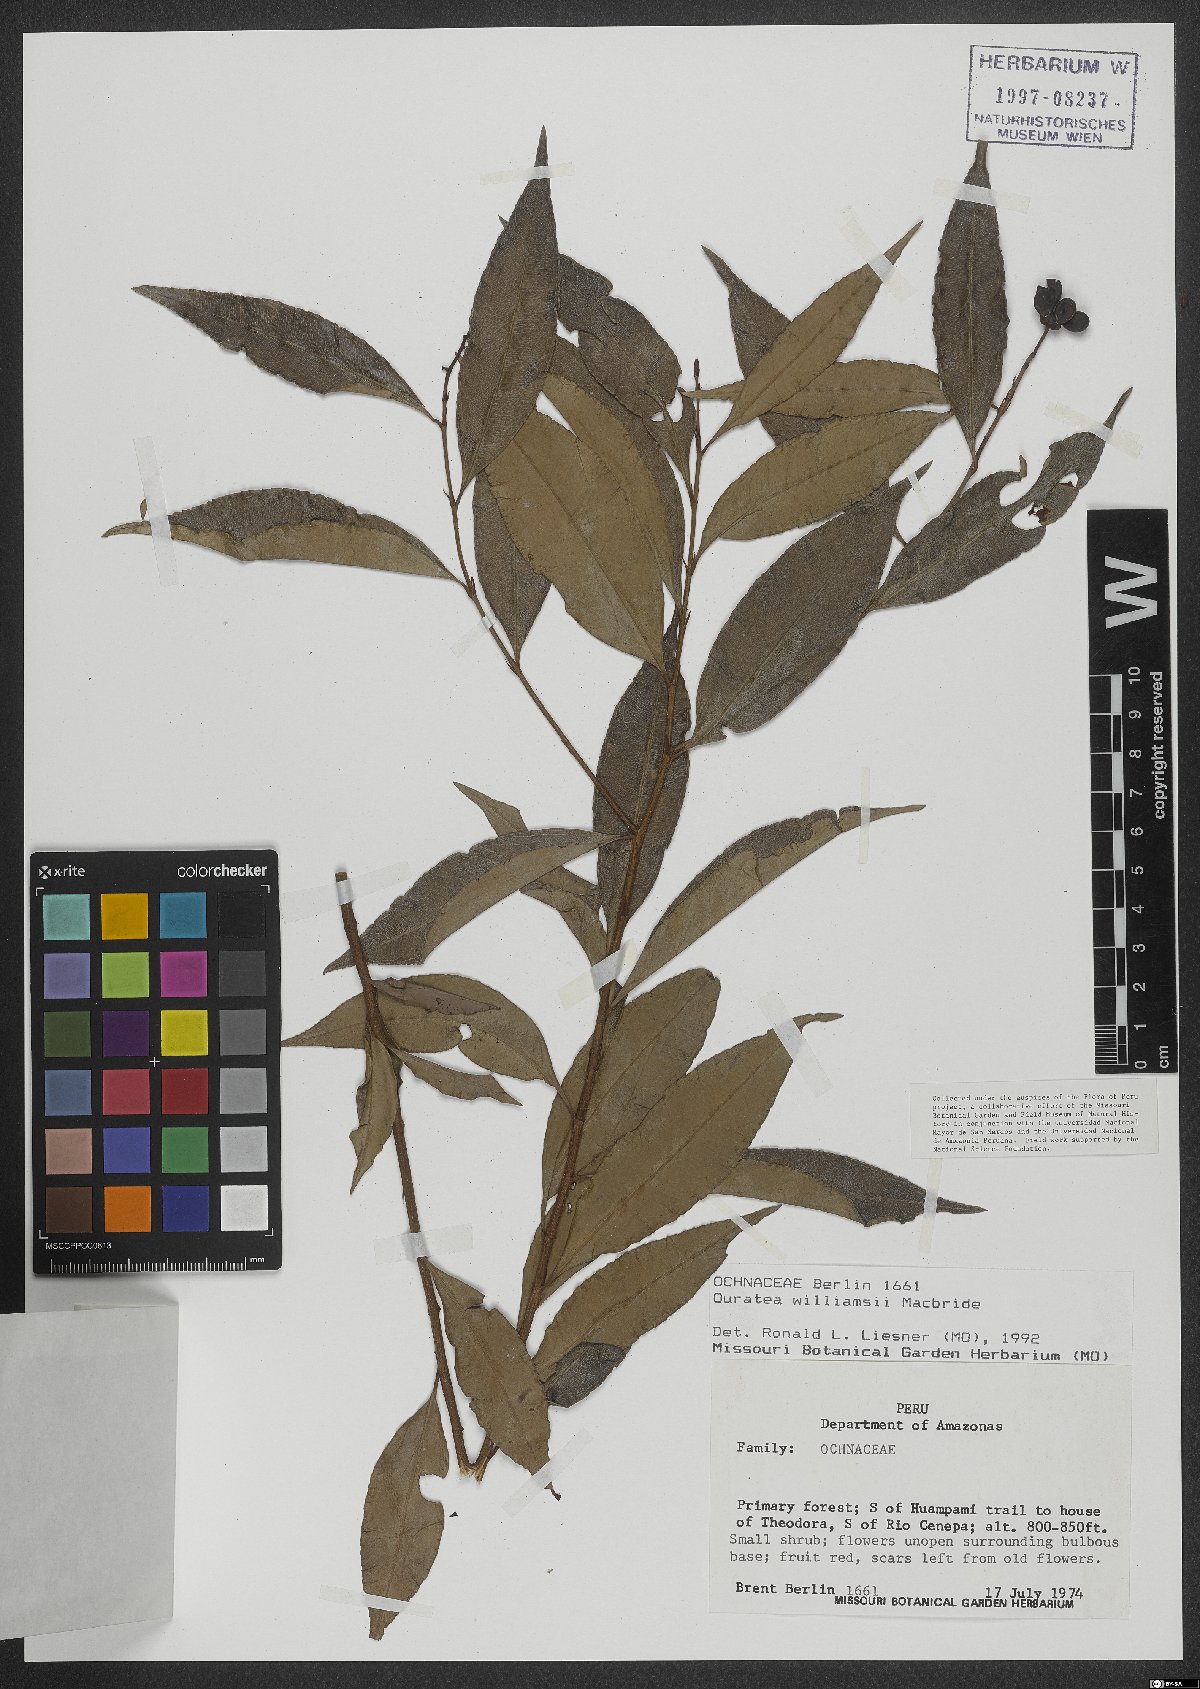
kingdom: Plantae
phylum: Tracheophyta
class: Magnoliopsida
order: Malpighiales
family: Ochnaceae
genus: Ouratea
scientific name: Ouratea williamsii
